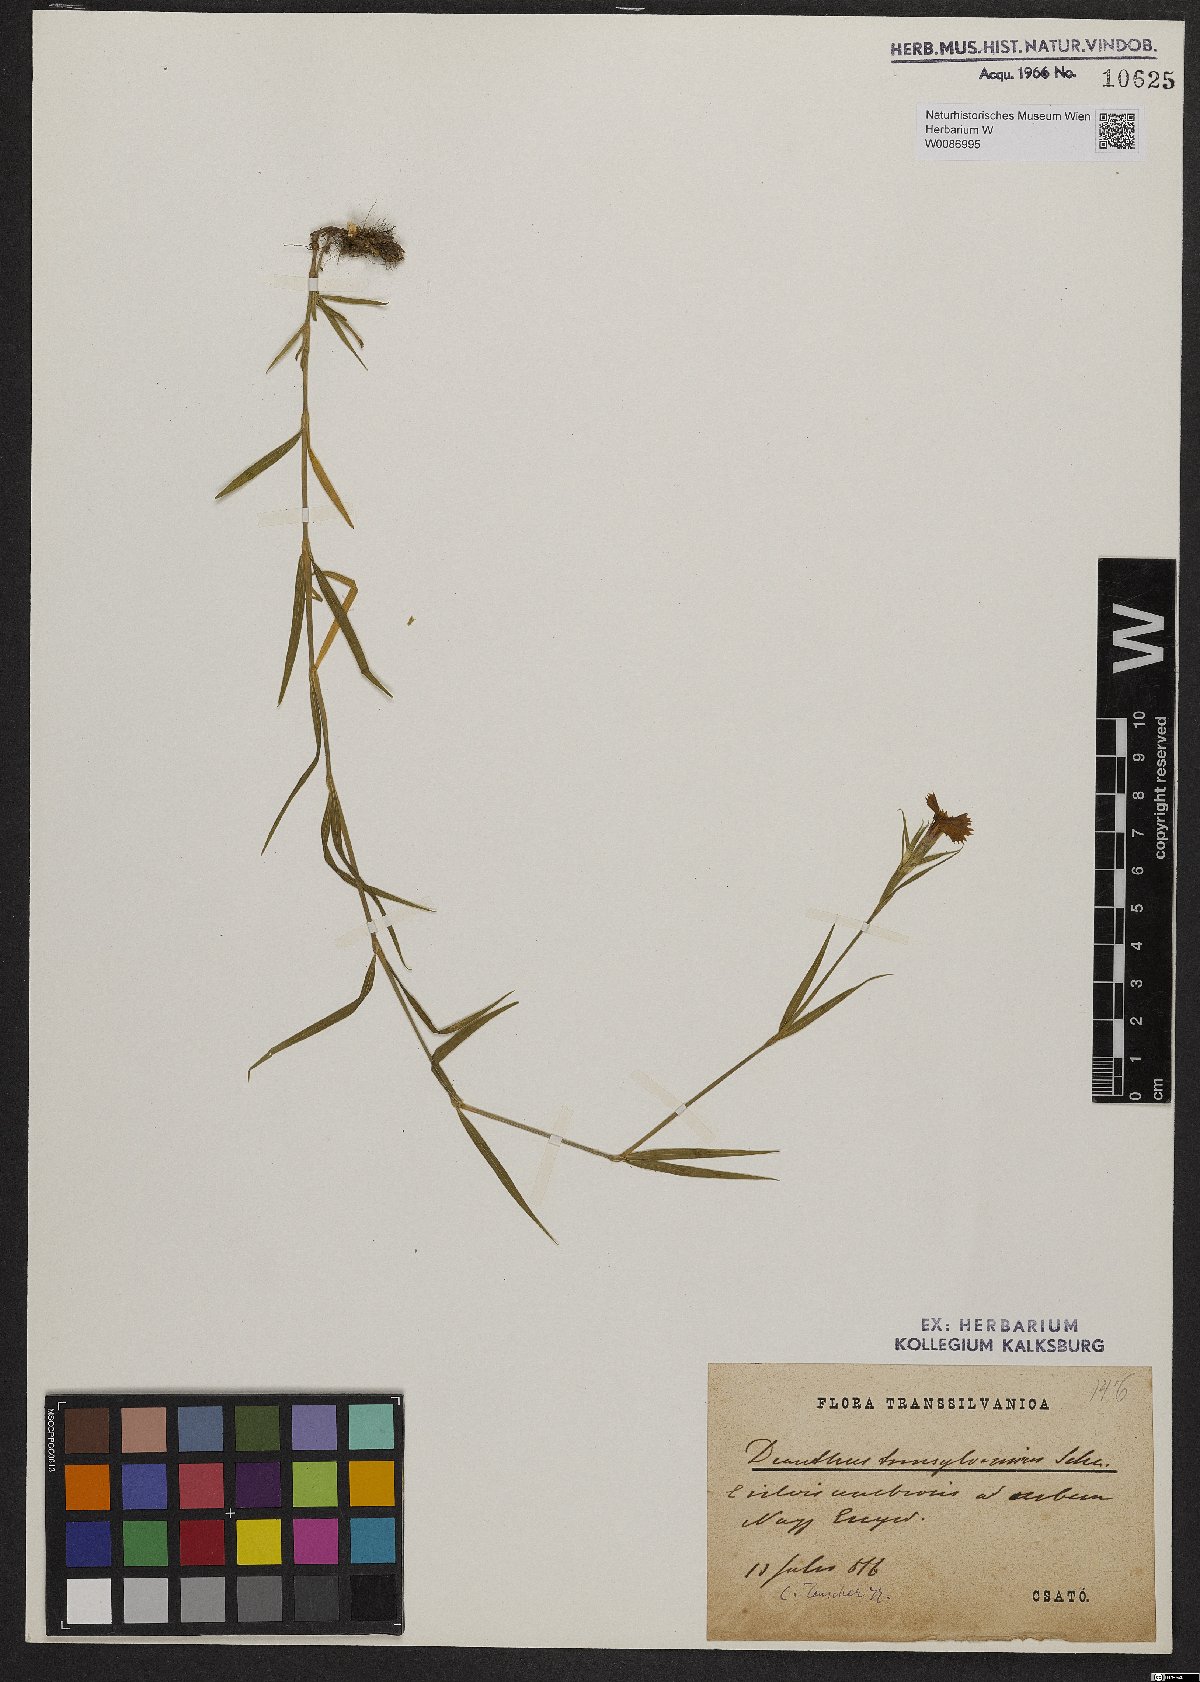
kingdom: Plantae
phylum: Tracheophyta
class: Magnoliopsida
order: Caryophyllales
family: Caryophyllaceae
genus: Dianthus
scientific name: Dianthus trifasciculatus
